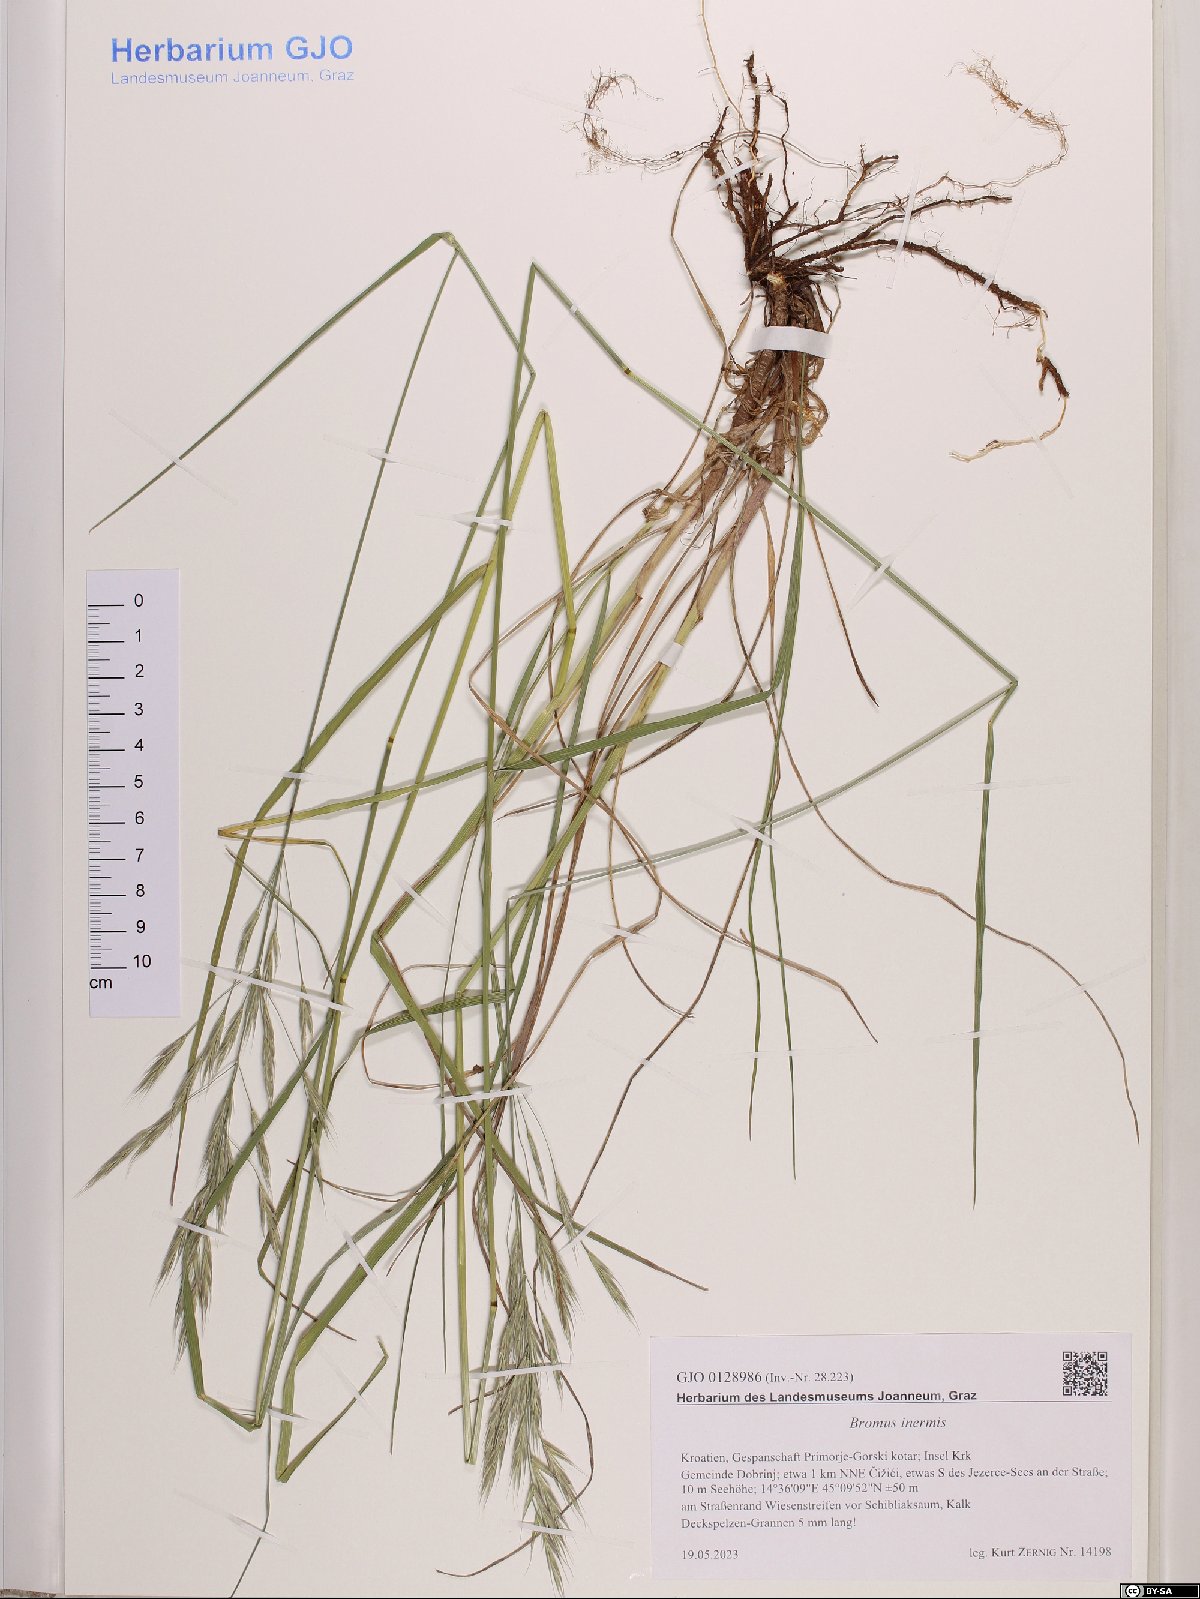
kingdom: Plantae
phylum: Tracheophyta
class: Liliopsida
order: Poales
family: Poaceae
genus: Bromus
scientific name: Bromus inermis
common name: Smooth brome
